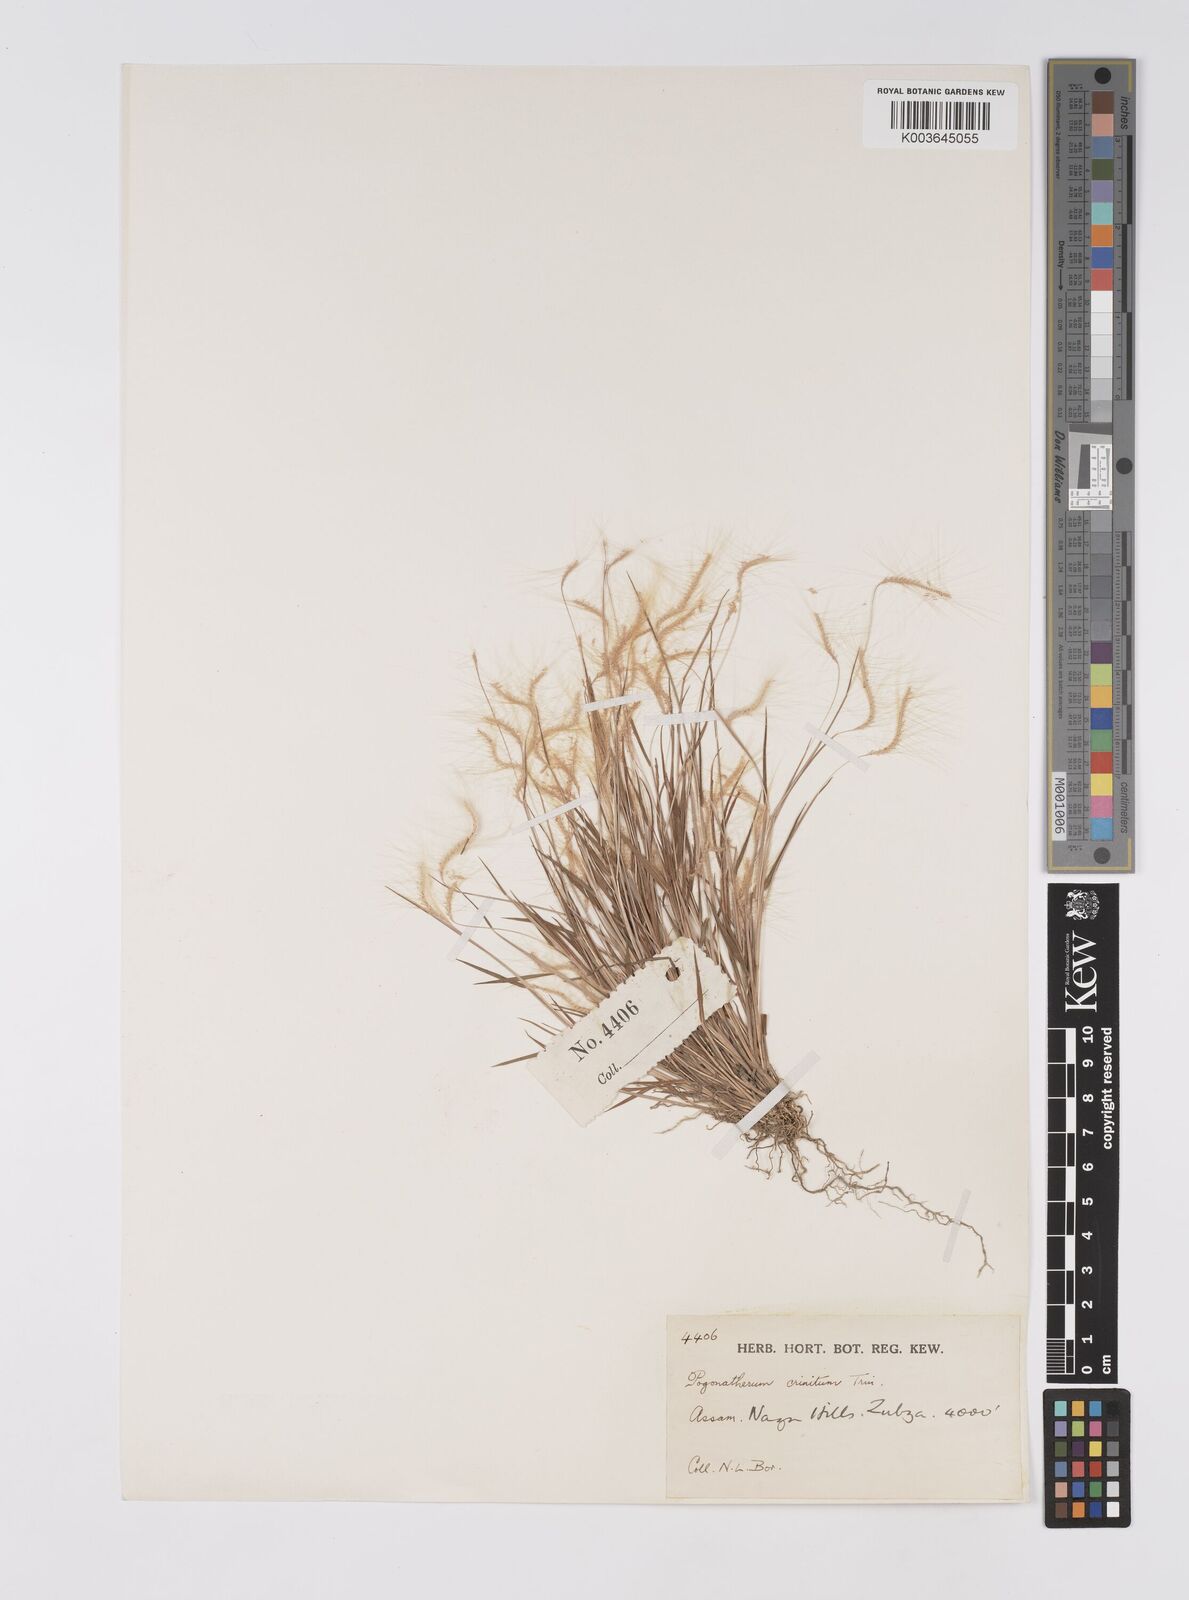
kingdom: Plantae
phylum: Tracheophyta
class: Liliopsida
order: Poales
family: Poaceae
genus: Pogonatherum
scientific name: Pogonatherum crinitum
